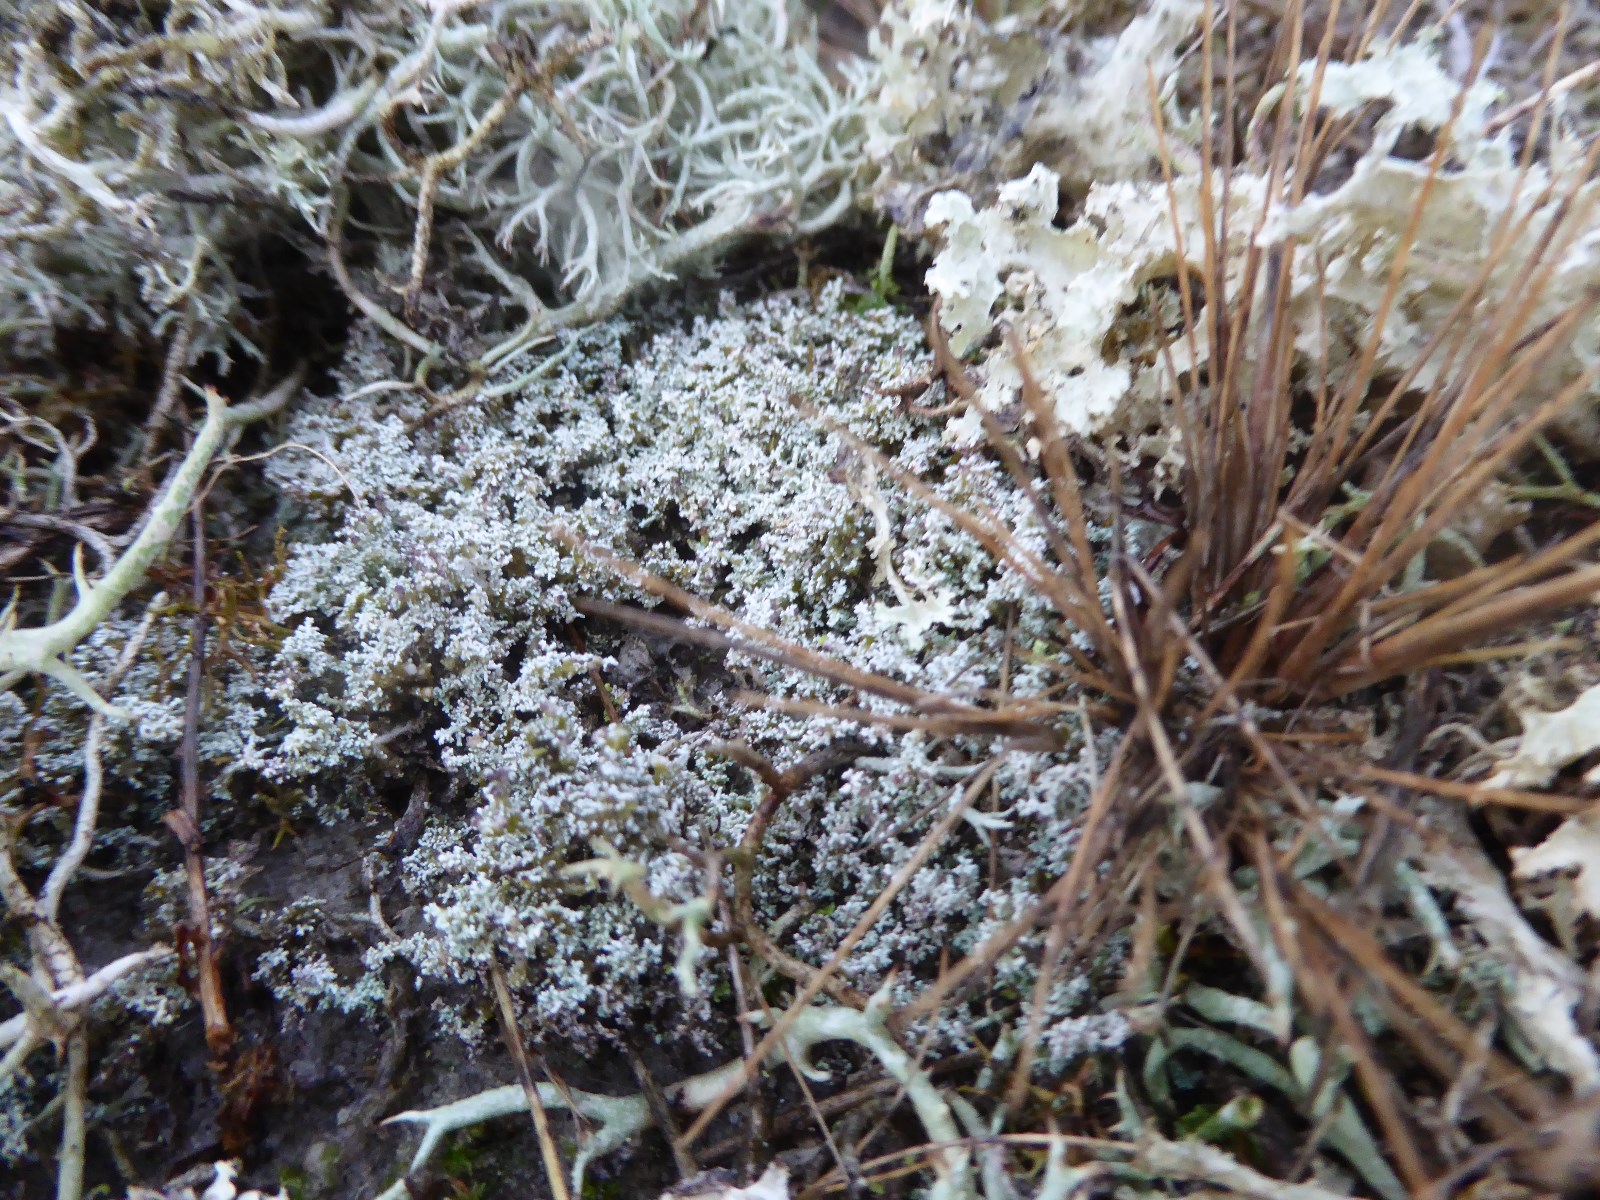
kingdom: Fungi
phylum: Ascomycota
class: Lecanoromycetes
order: Lecanorales
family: Stereocaulaceae
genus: Stereocaulon
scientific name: Stereocaulon saxatile
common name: klit-korallav
